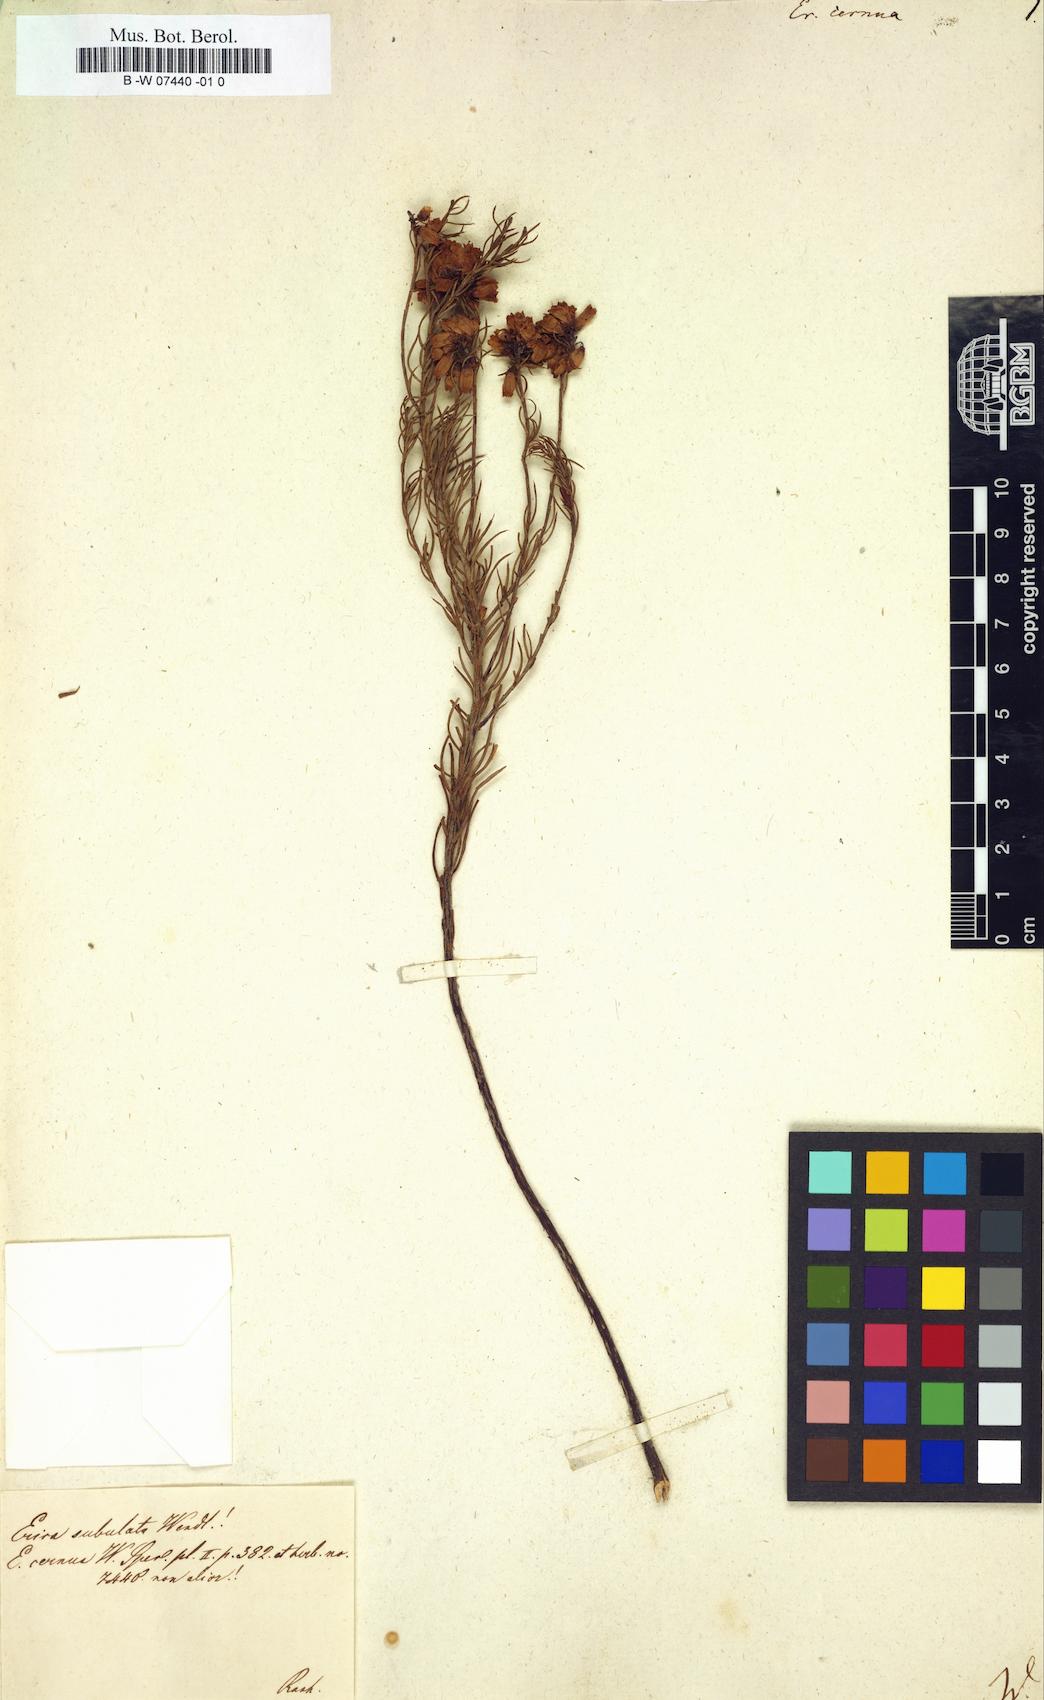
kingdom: Plantae
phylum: Tracheophyta
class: Magnoliopsida
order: Ericales
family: Ericaceae
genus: Erica
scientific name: Erica cernua
